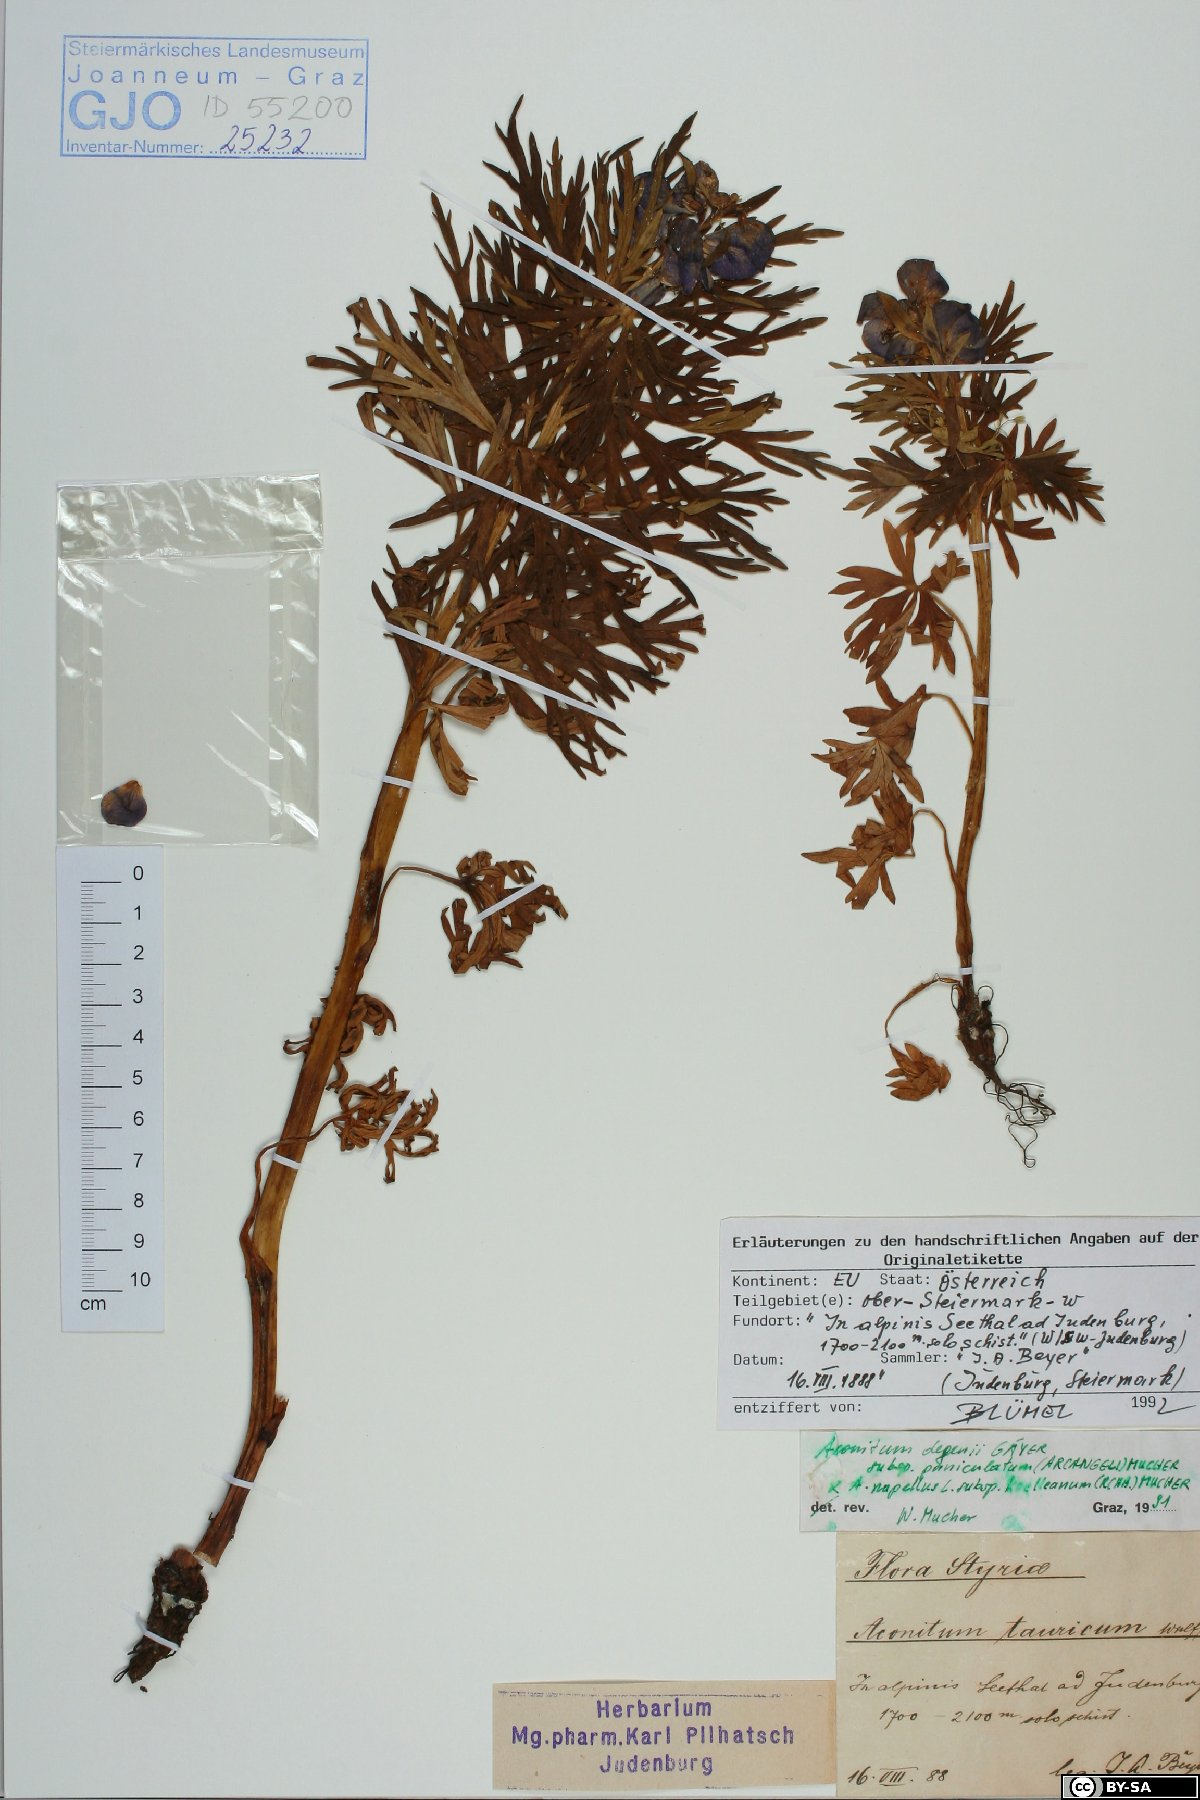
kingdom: Plantae
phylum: Tracheophyta
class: Magnoliopsida
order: Ranunculales
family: Ranunculaceae
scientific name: Ranunculaceae
